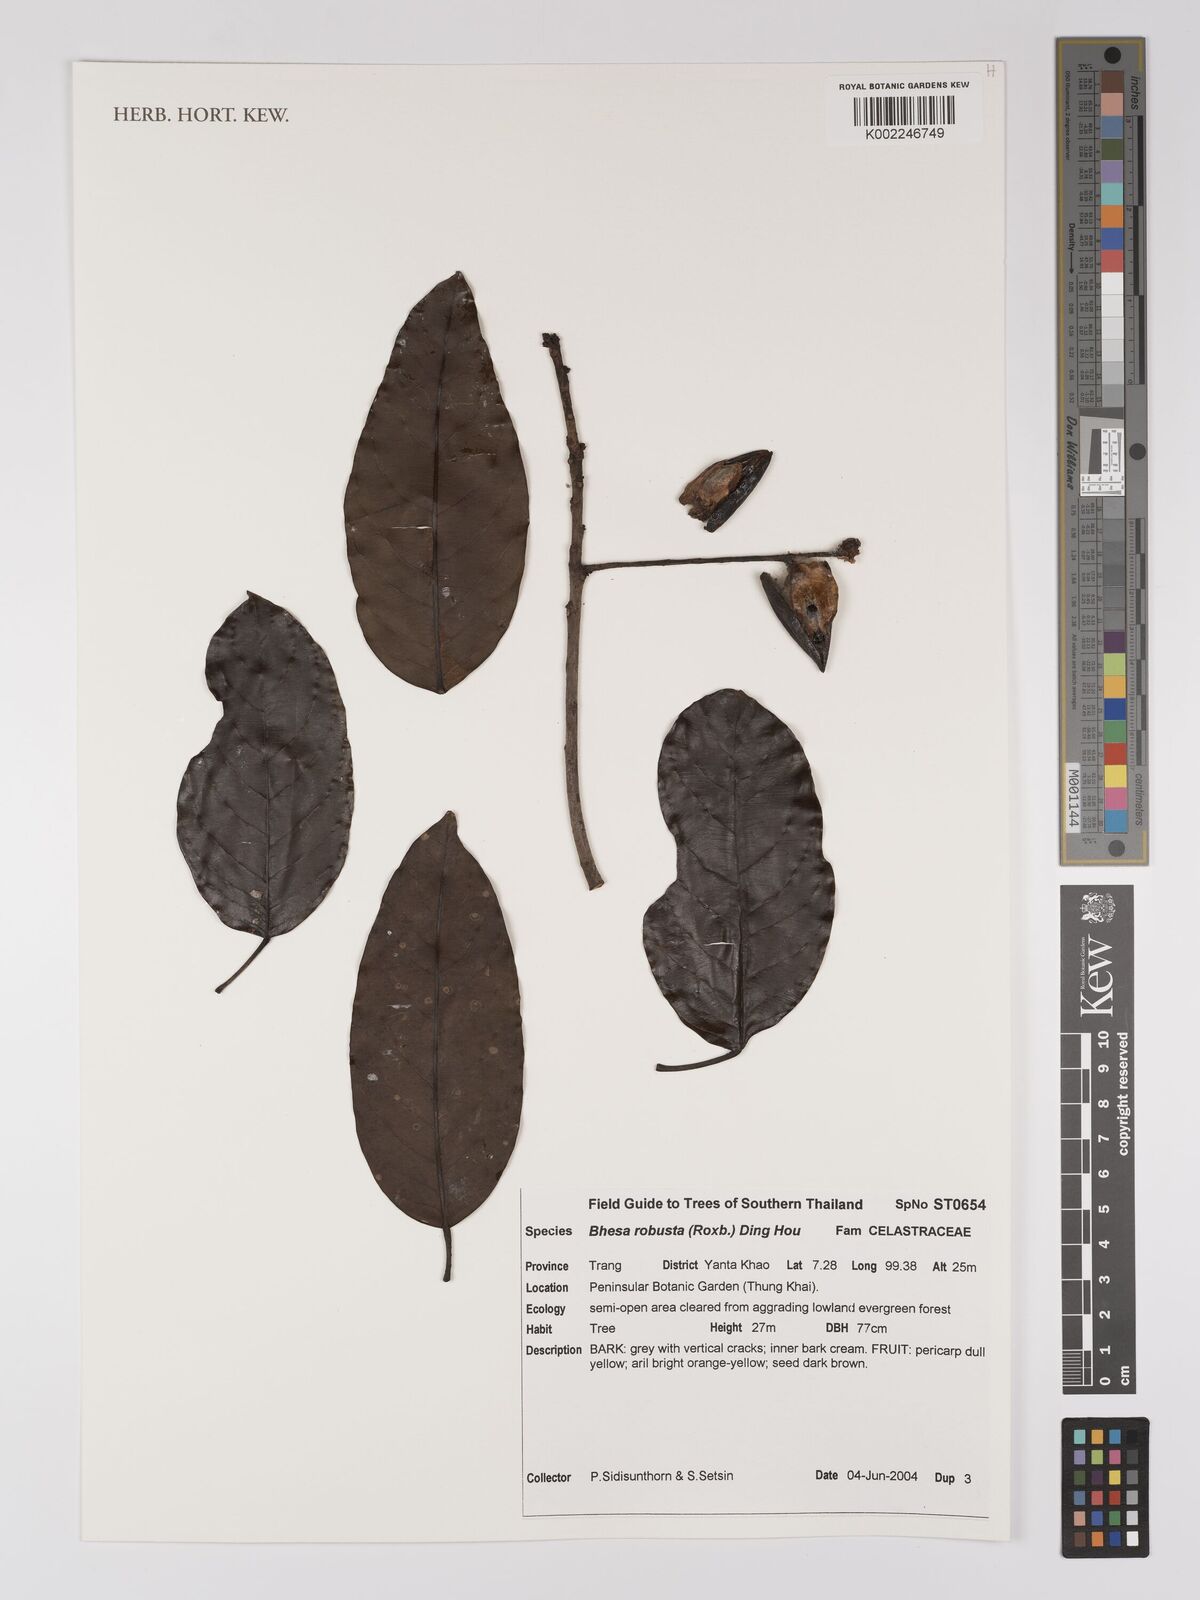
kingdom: Plantae
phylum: Tracheophyta
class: Magnoliopsida
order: Malpighiales
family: Centroplacaceae
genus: Bhesa
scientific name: Bhesa robusta
